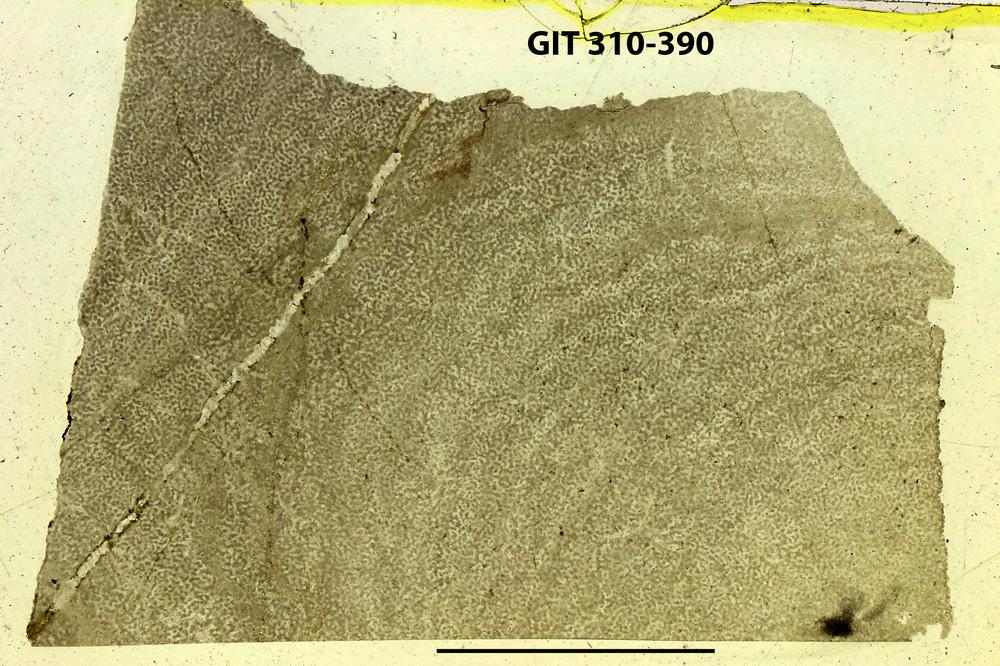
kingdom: Animalia
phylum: Porifera
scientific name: Porifera
